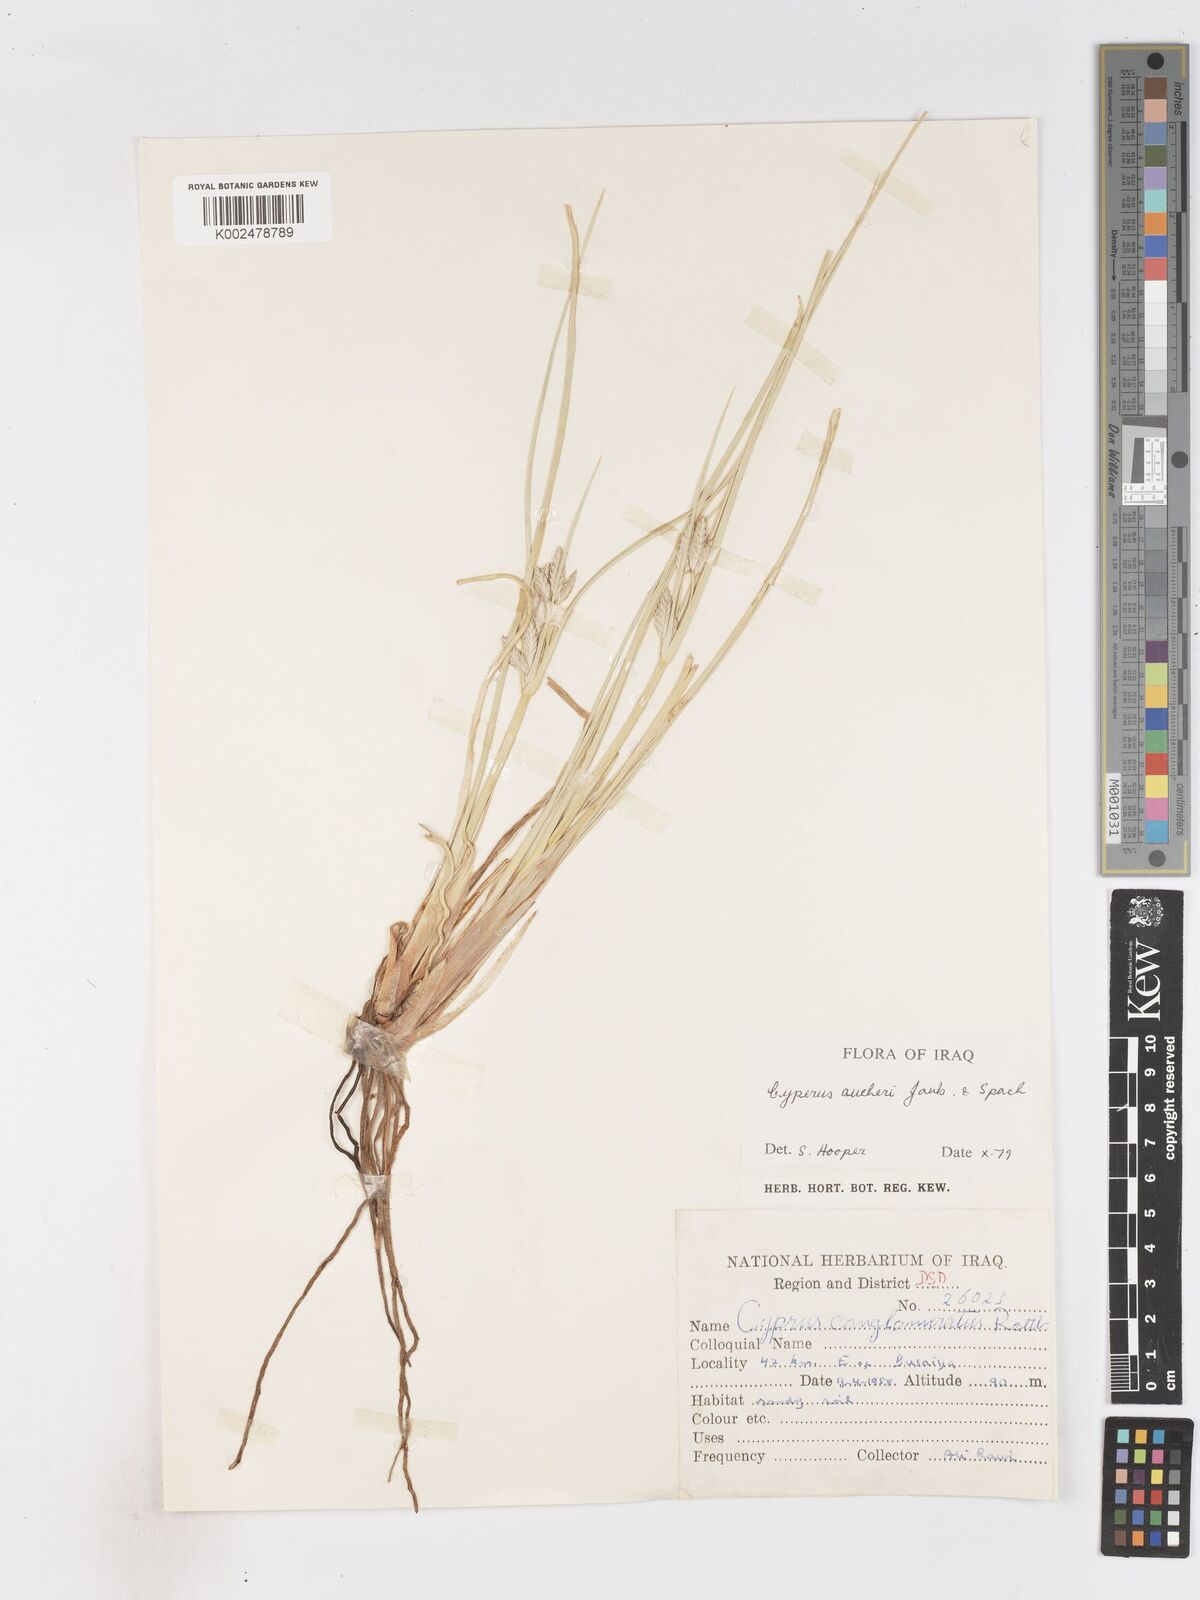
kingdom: Plantae
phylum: Tracheophyta
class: Liliopsida
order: Poales
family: Cyperaceae
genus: Cyperus
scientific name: Cyperus aucheri
